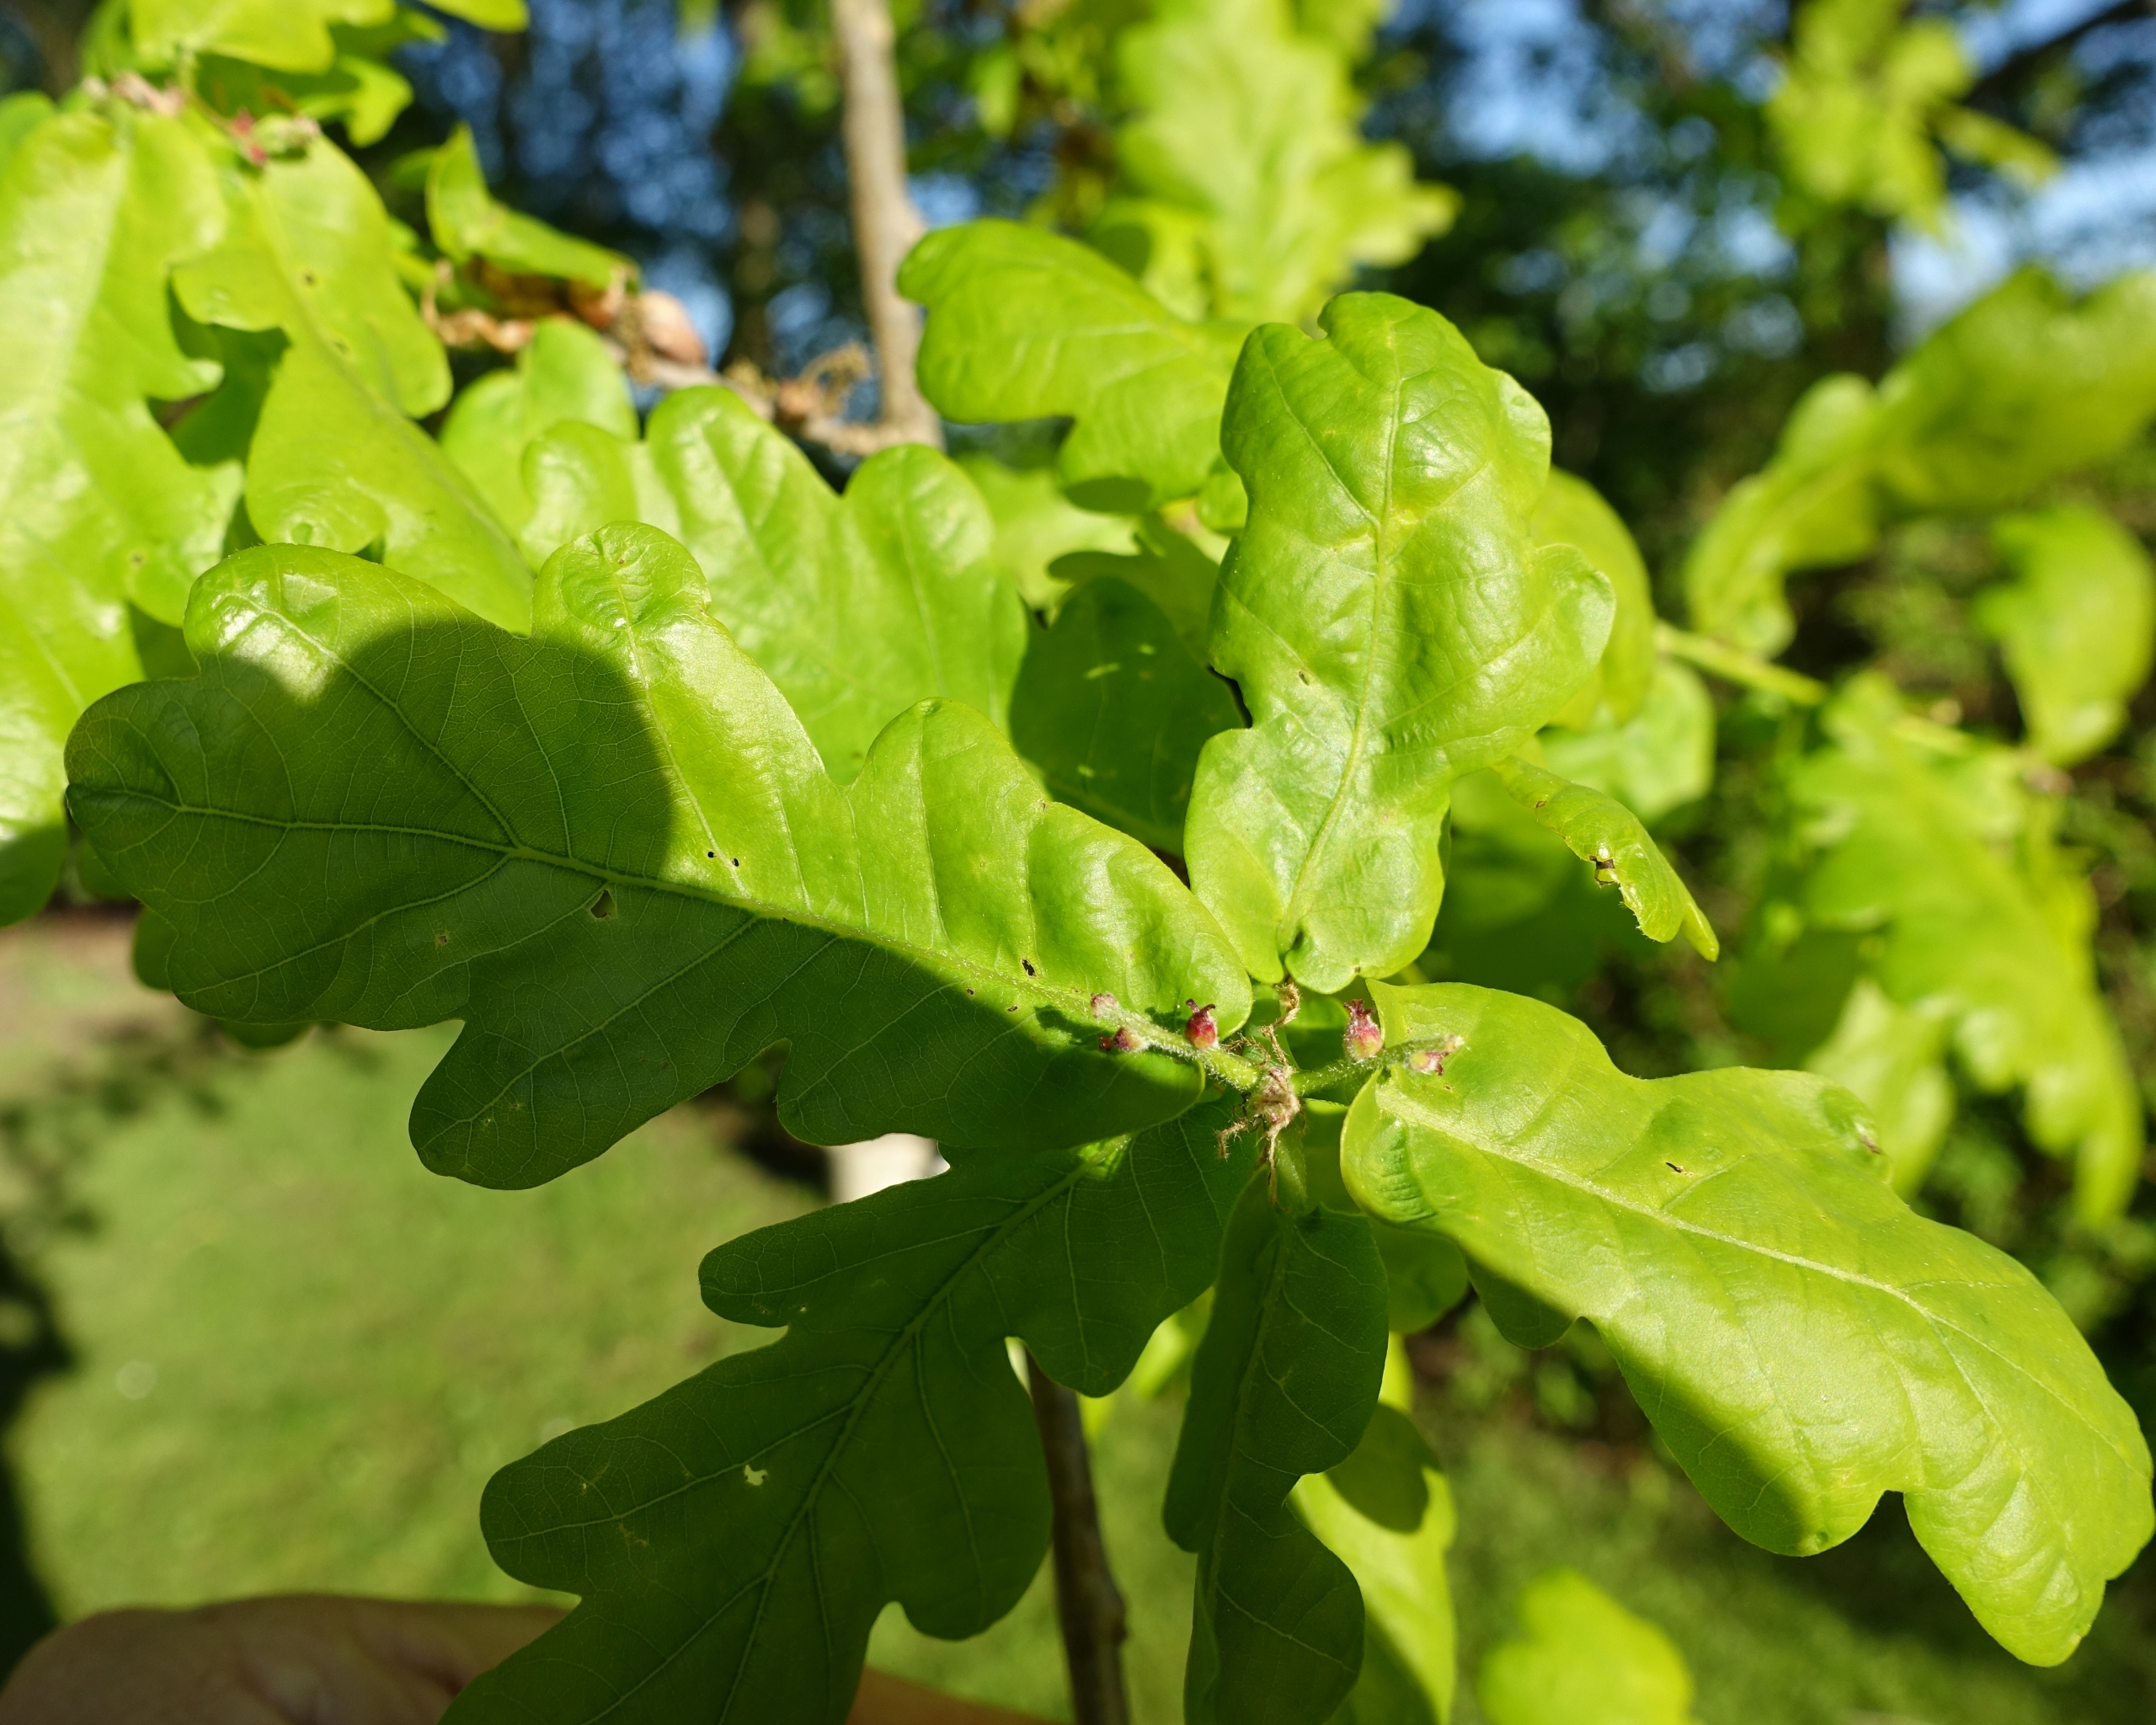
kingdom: Plantae
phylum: Tracheophyta
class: Magnoliopsida
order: Fagales
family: Fagaceae
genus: Quercus
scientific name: Quercus robur
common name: Stilk-eg/almindelig eg
